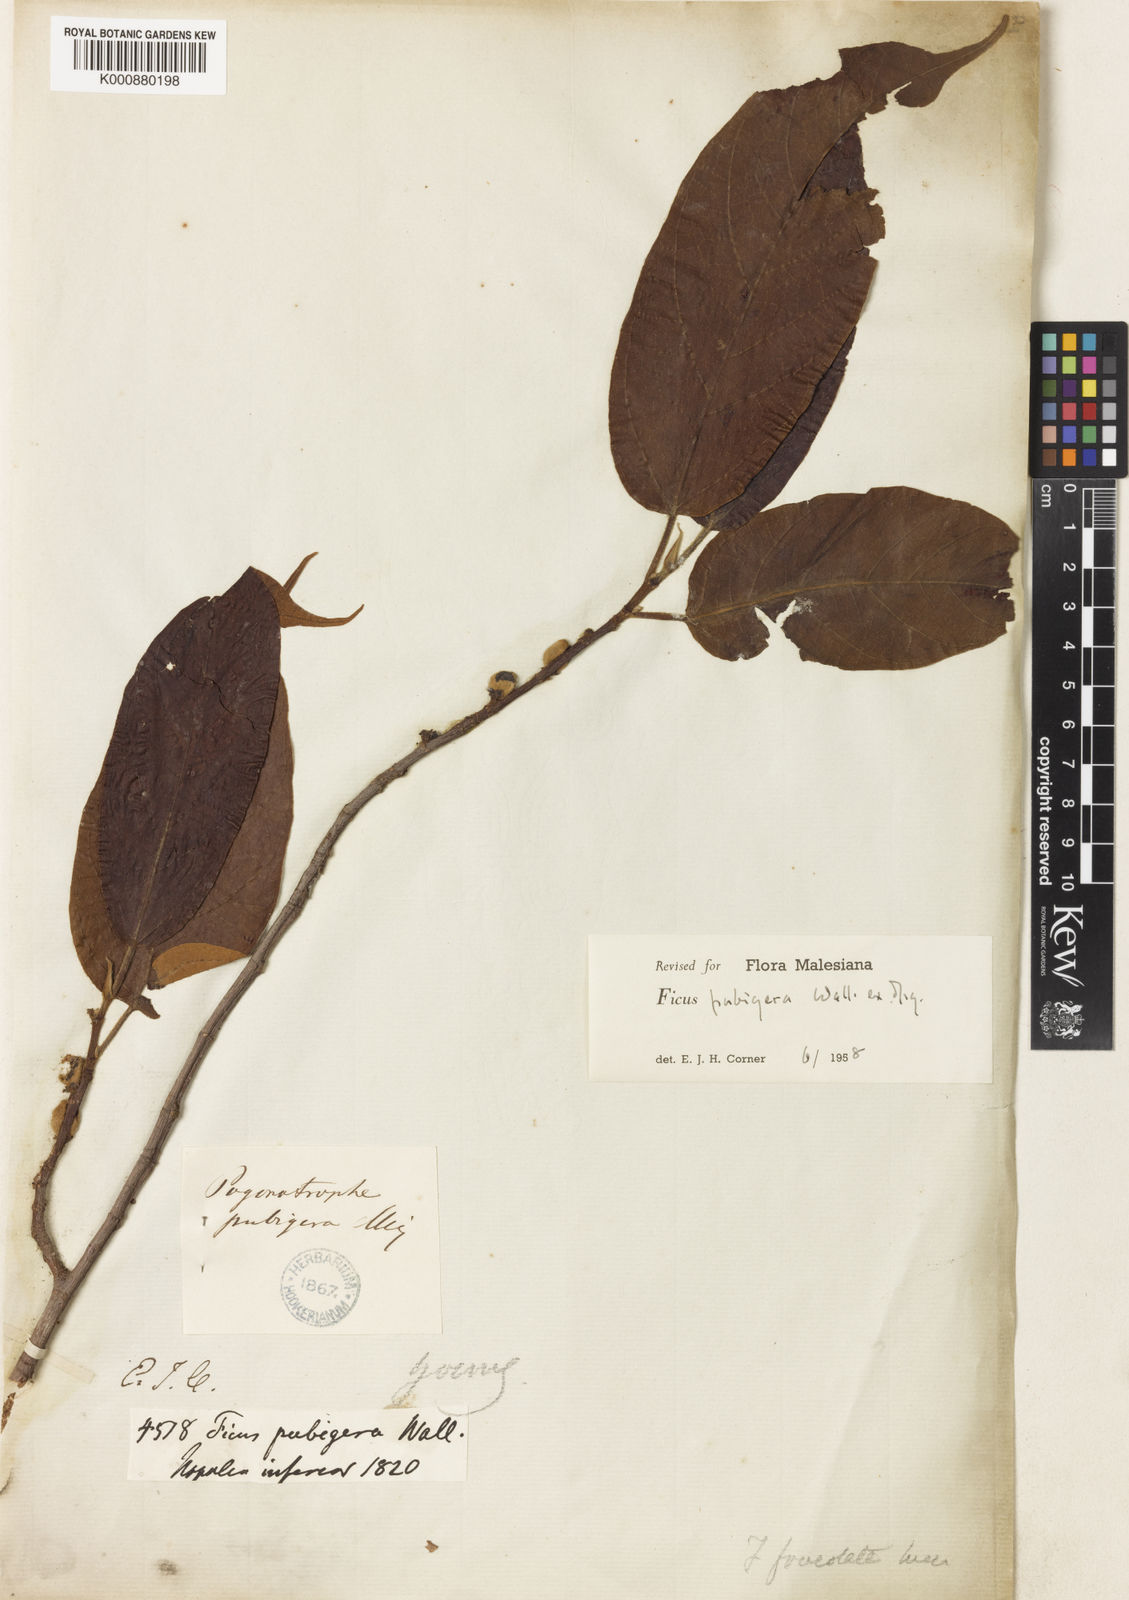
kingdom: Plantae
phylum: Tracheophyta
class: Magnoliopsida
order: Rosales
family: Moraceae
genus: Ficus
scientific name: Ficus pubigera
